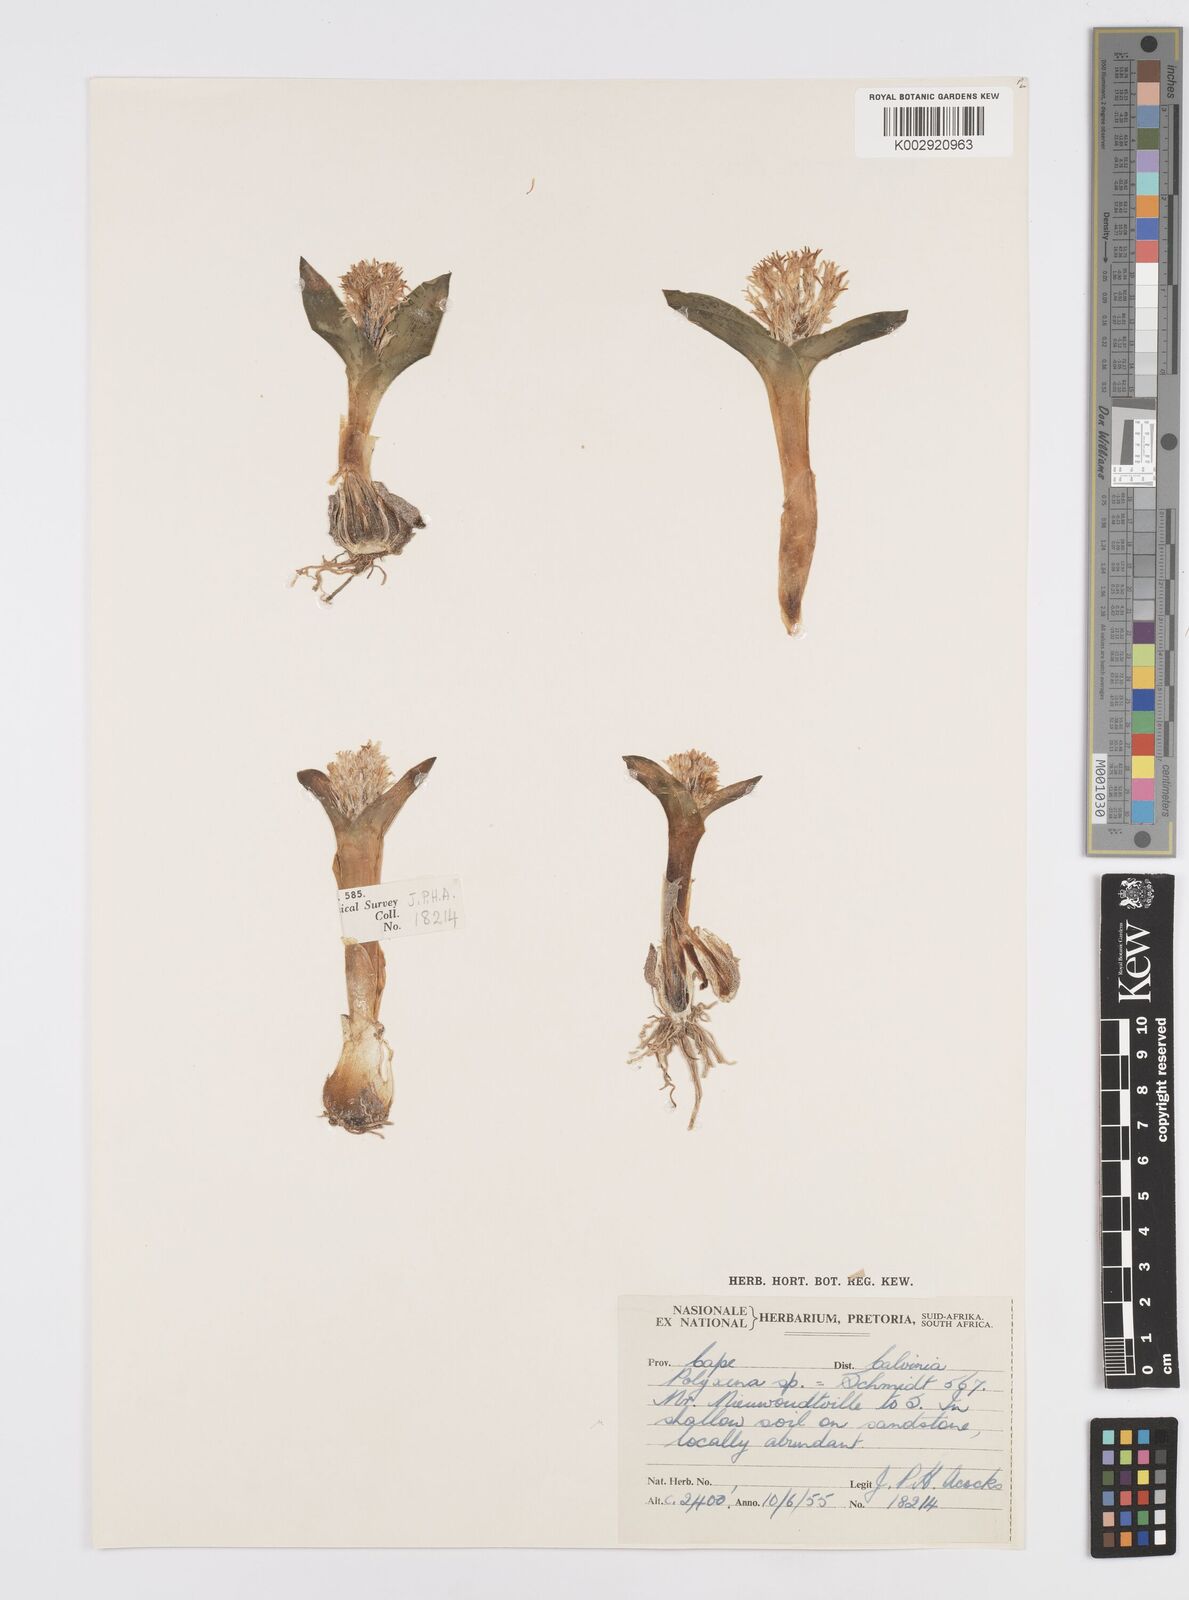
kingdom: Plantae
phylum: Tracheophyta
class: Liliopsida
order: Asparagales
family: Asparagaceae
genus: Lachenalia
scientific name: Lachenalia ensifolia
